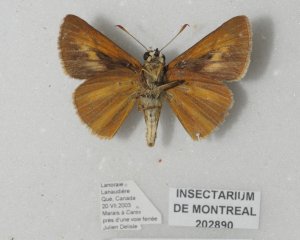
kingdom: Animalia
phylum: Arthropoda
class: Insecta
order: Lepidoptera
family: Hesperiidae
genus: Euphyes
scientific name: Euphyes dion
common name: Dion Skipper
